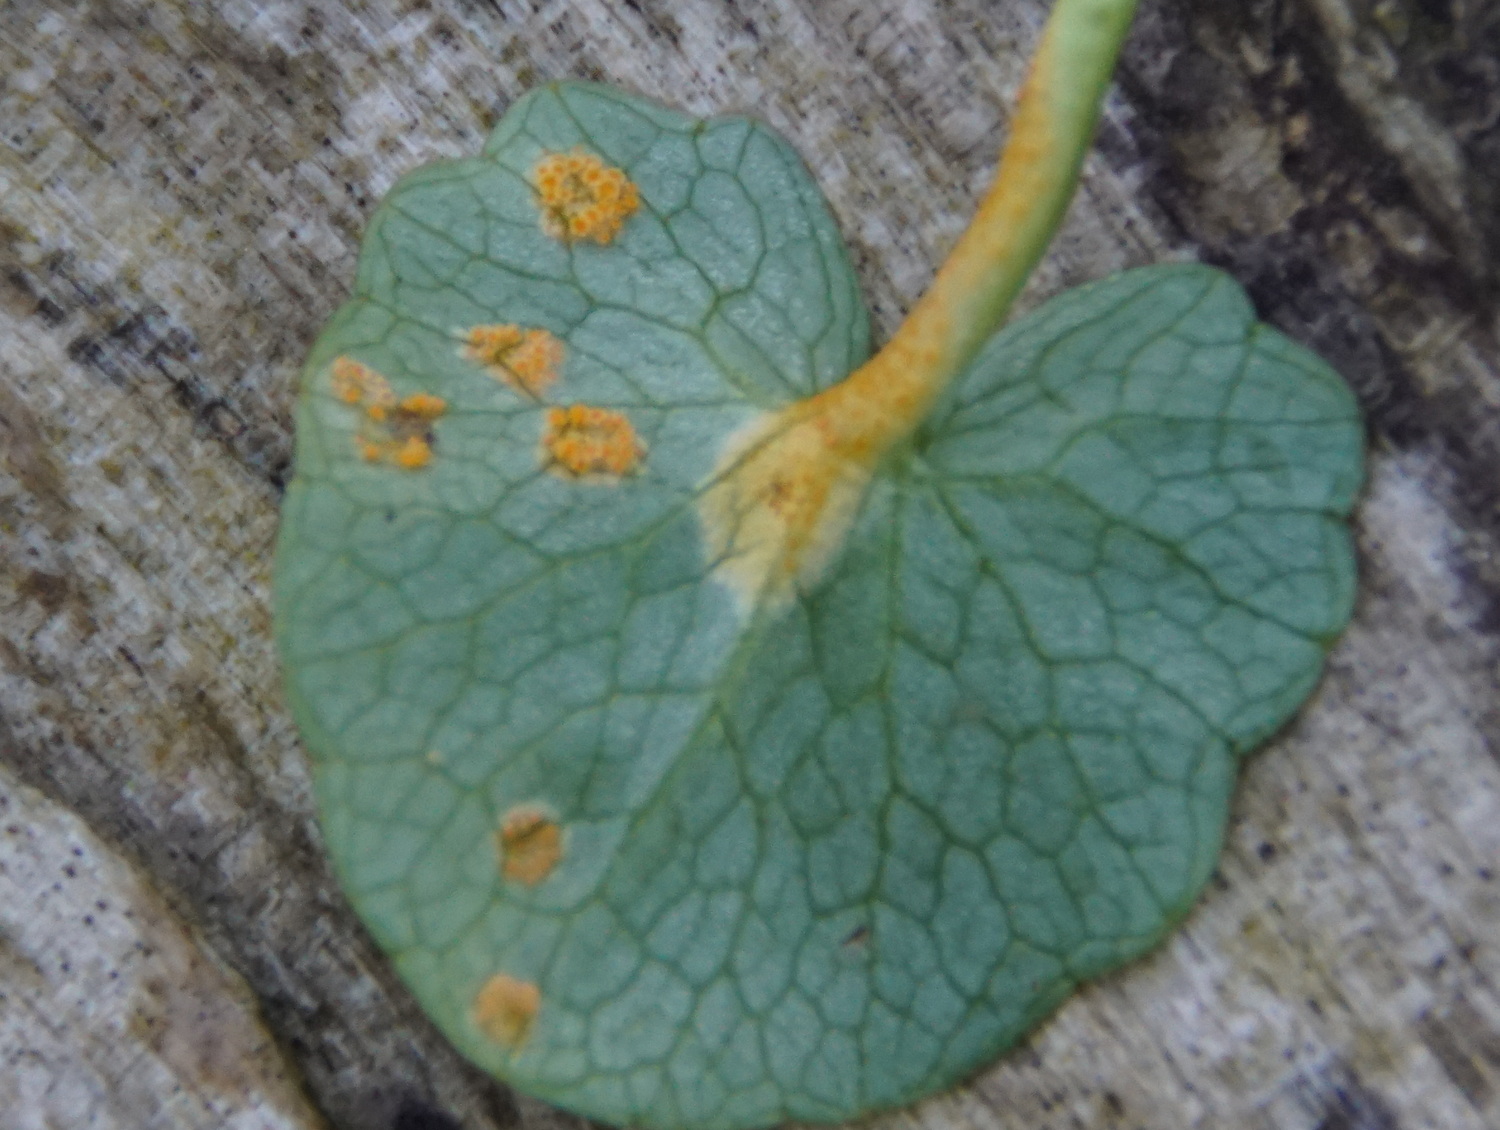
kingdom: Fungi
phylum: Basidiomycota
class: Pucciniomycetes
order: Pucciniales
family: Pucciniaceae
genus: Uromyces
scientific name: Uromyces dactylidis
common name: ranunkel-encellerust
